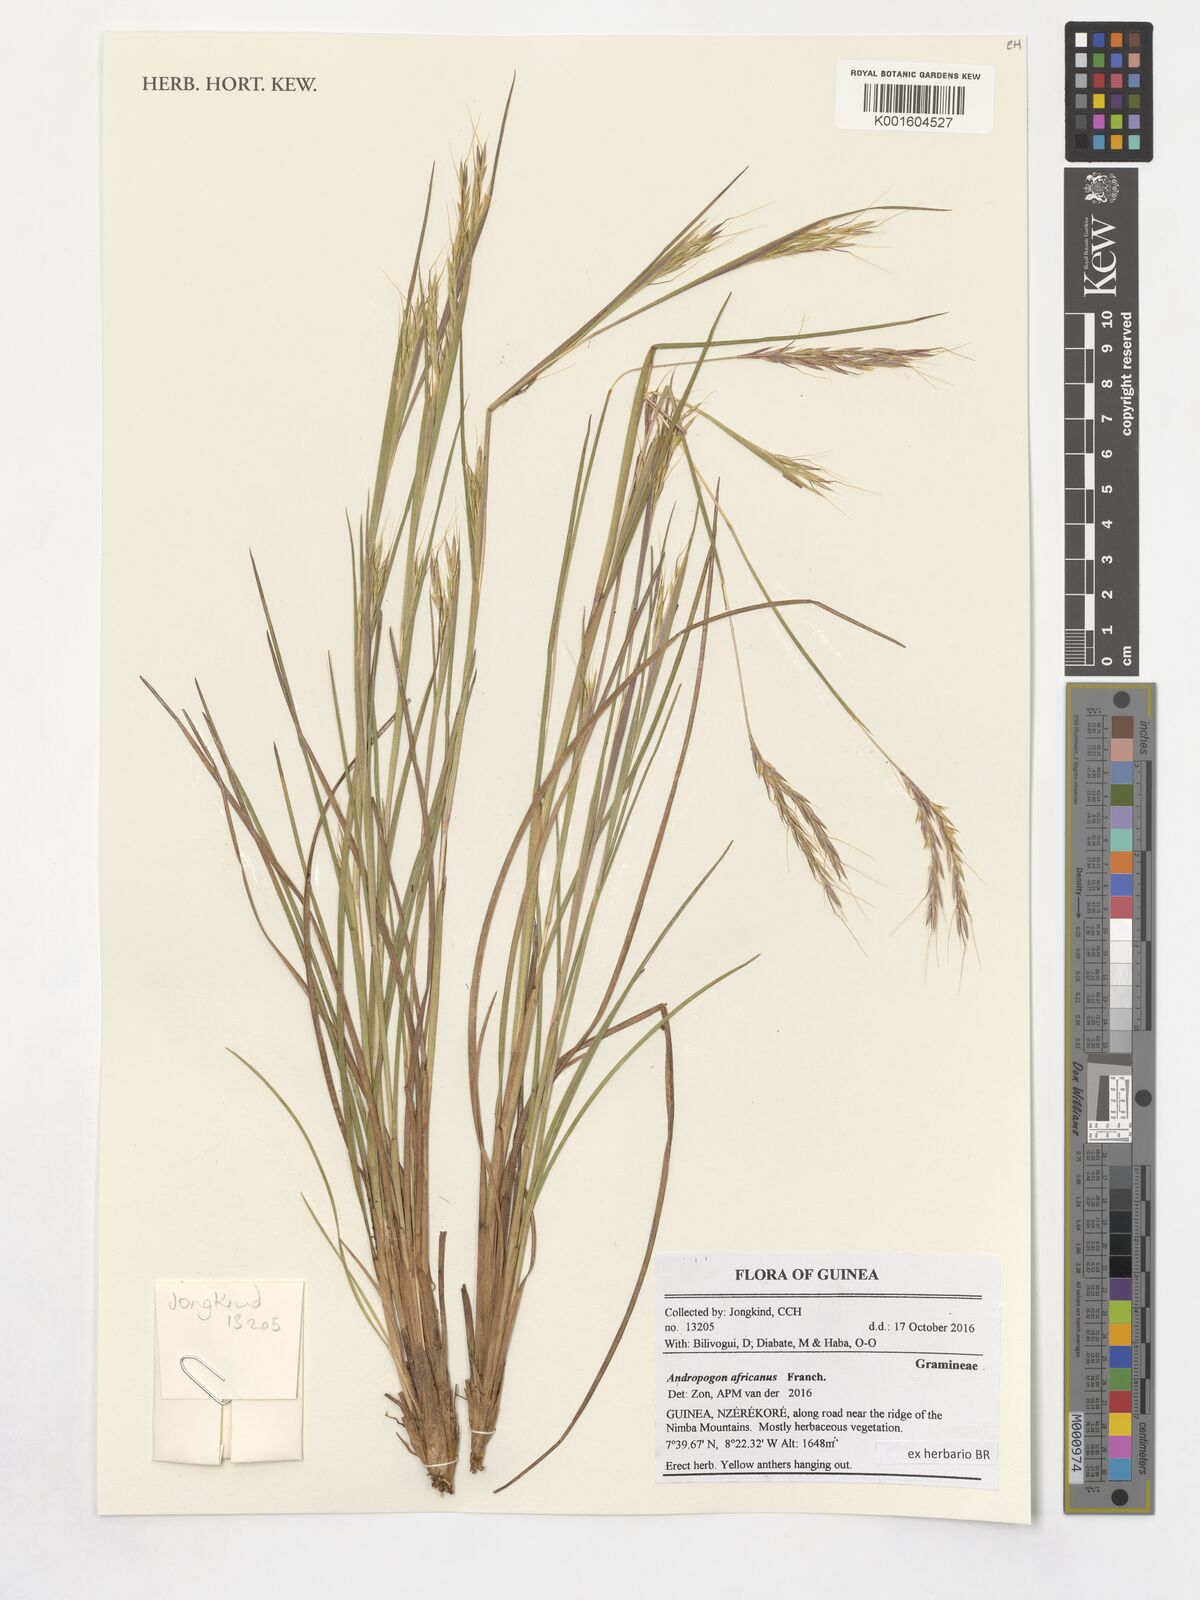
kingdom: Plantae
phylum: Tracheophyta
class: Liliopsida
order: Poales
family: Poaceae
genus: Andropogon
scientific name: Andropogon africanus
